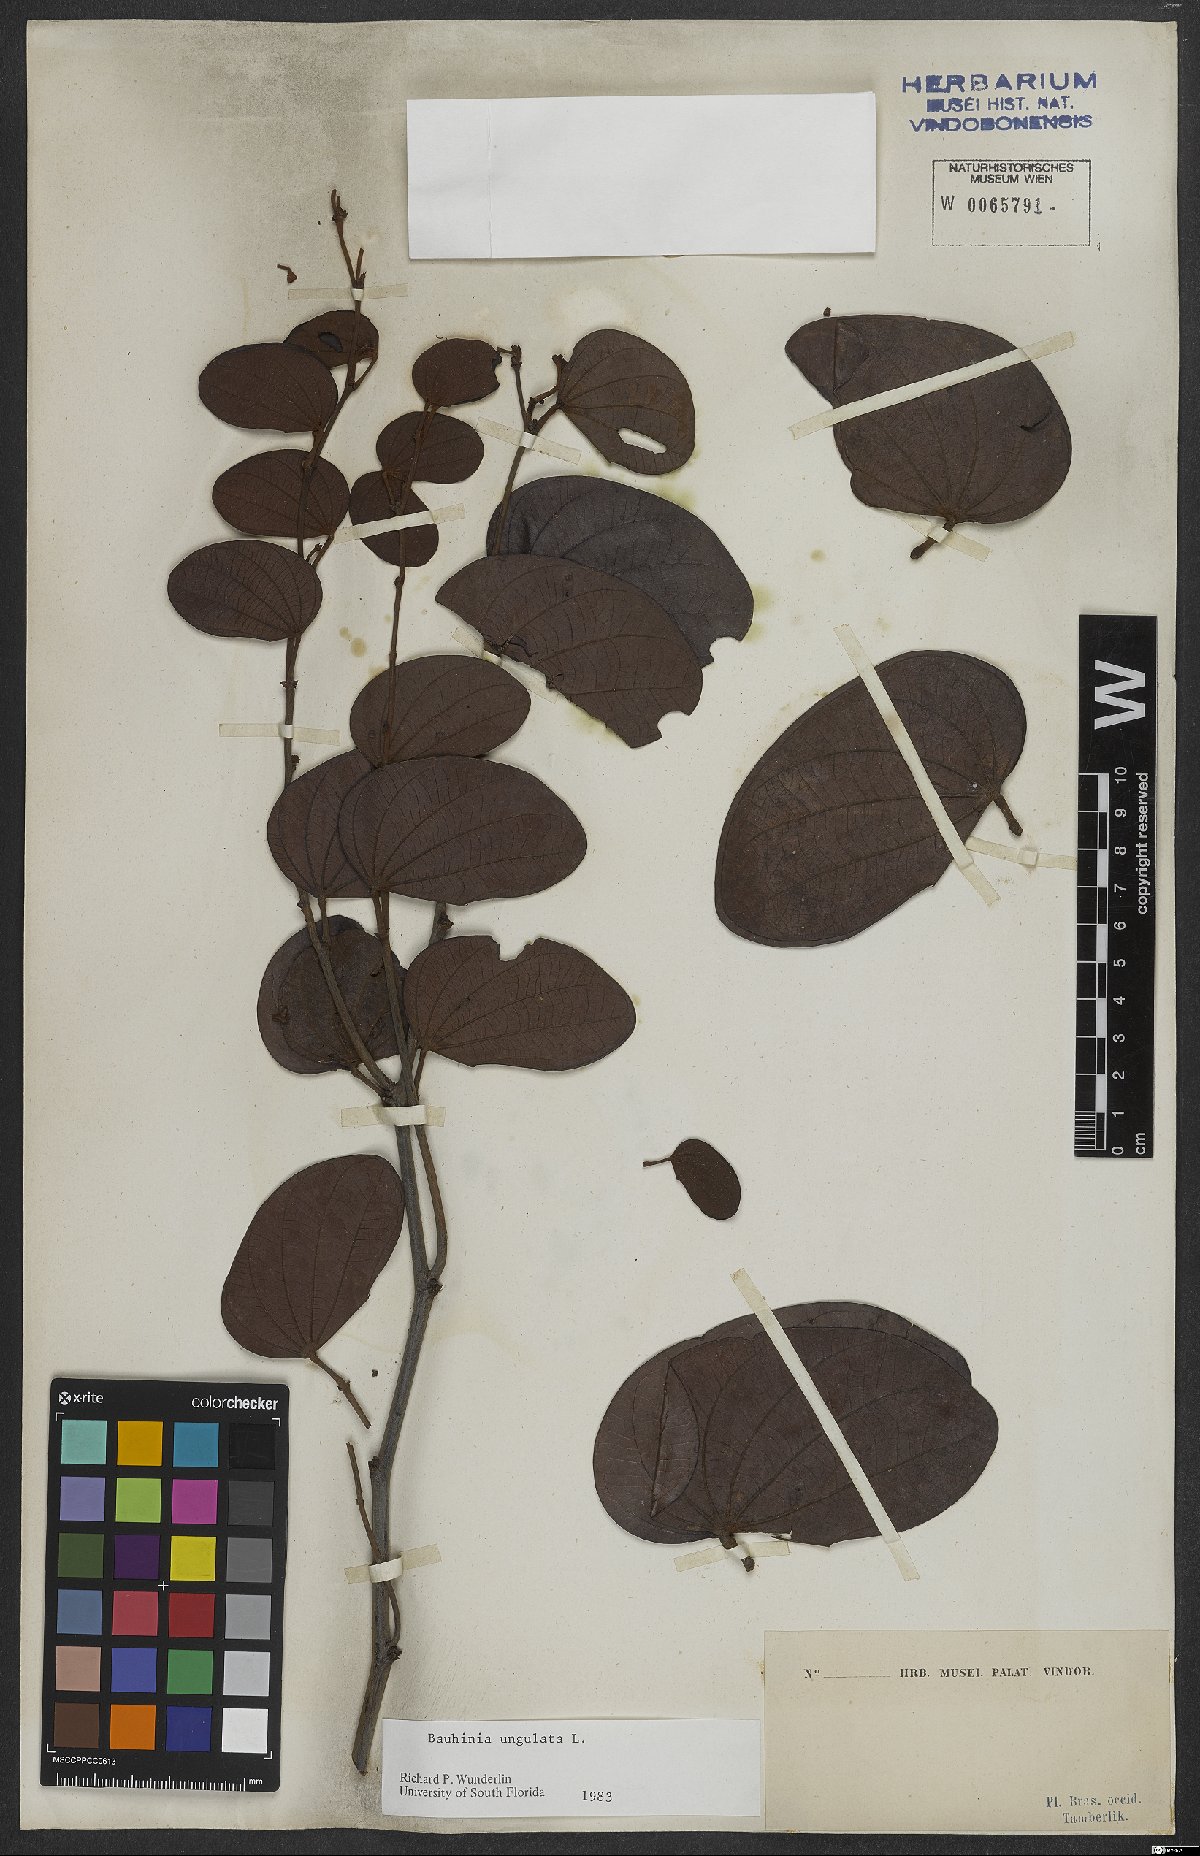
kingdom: Plantae
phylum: Tracheophyta
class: Magnoliopsida
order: Fabales
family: Fabaceae
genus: Bauhinia
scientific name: Bauhinia ungulata
